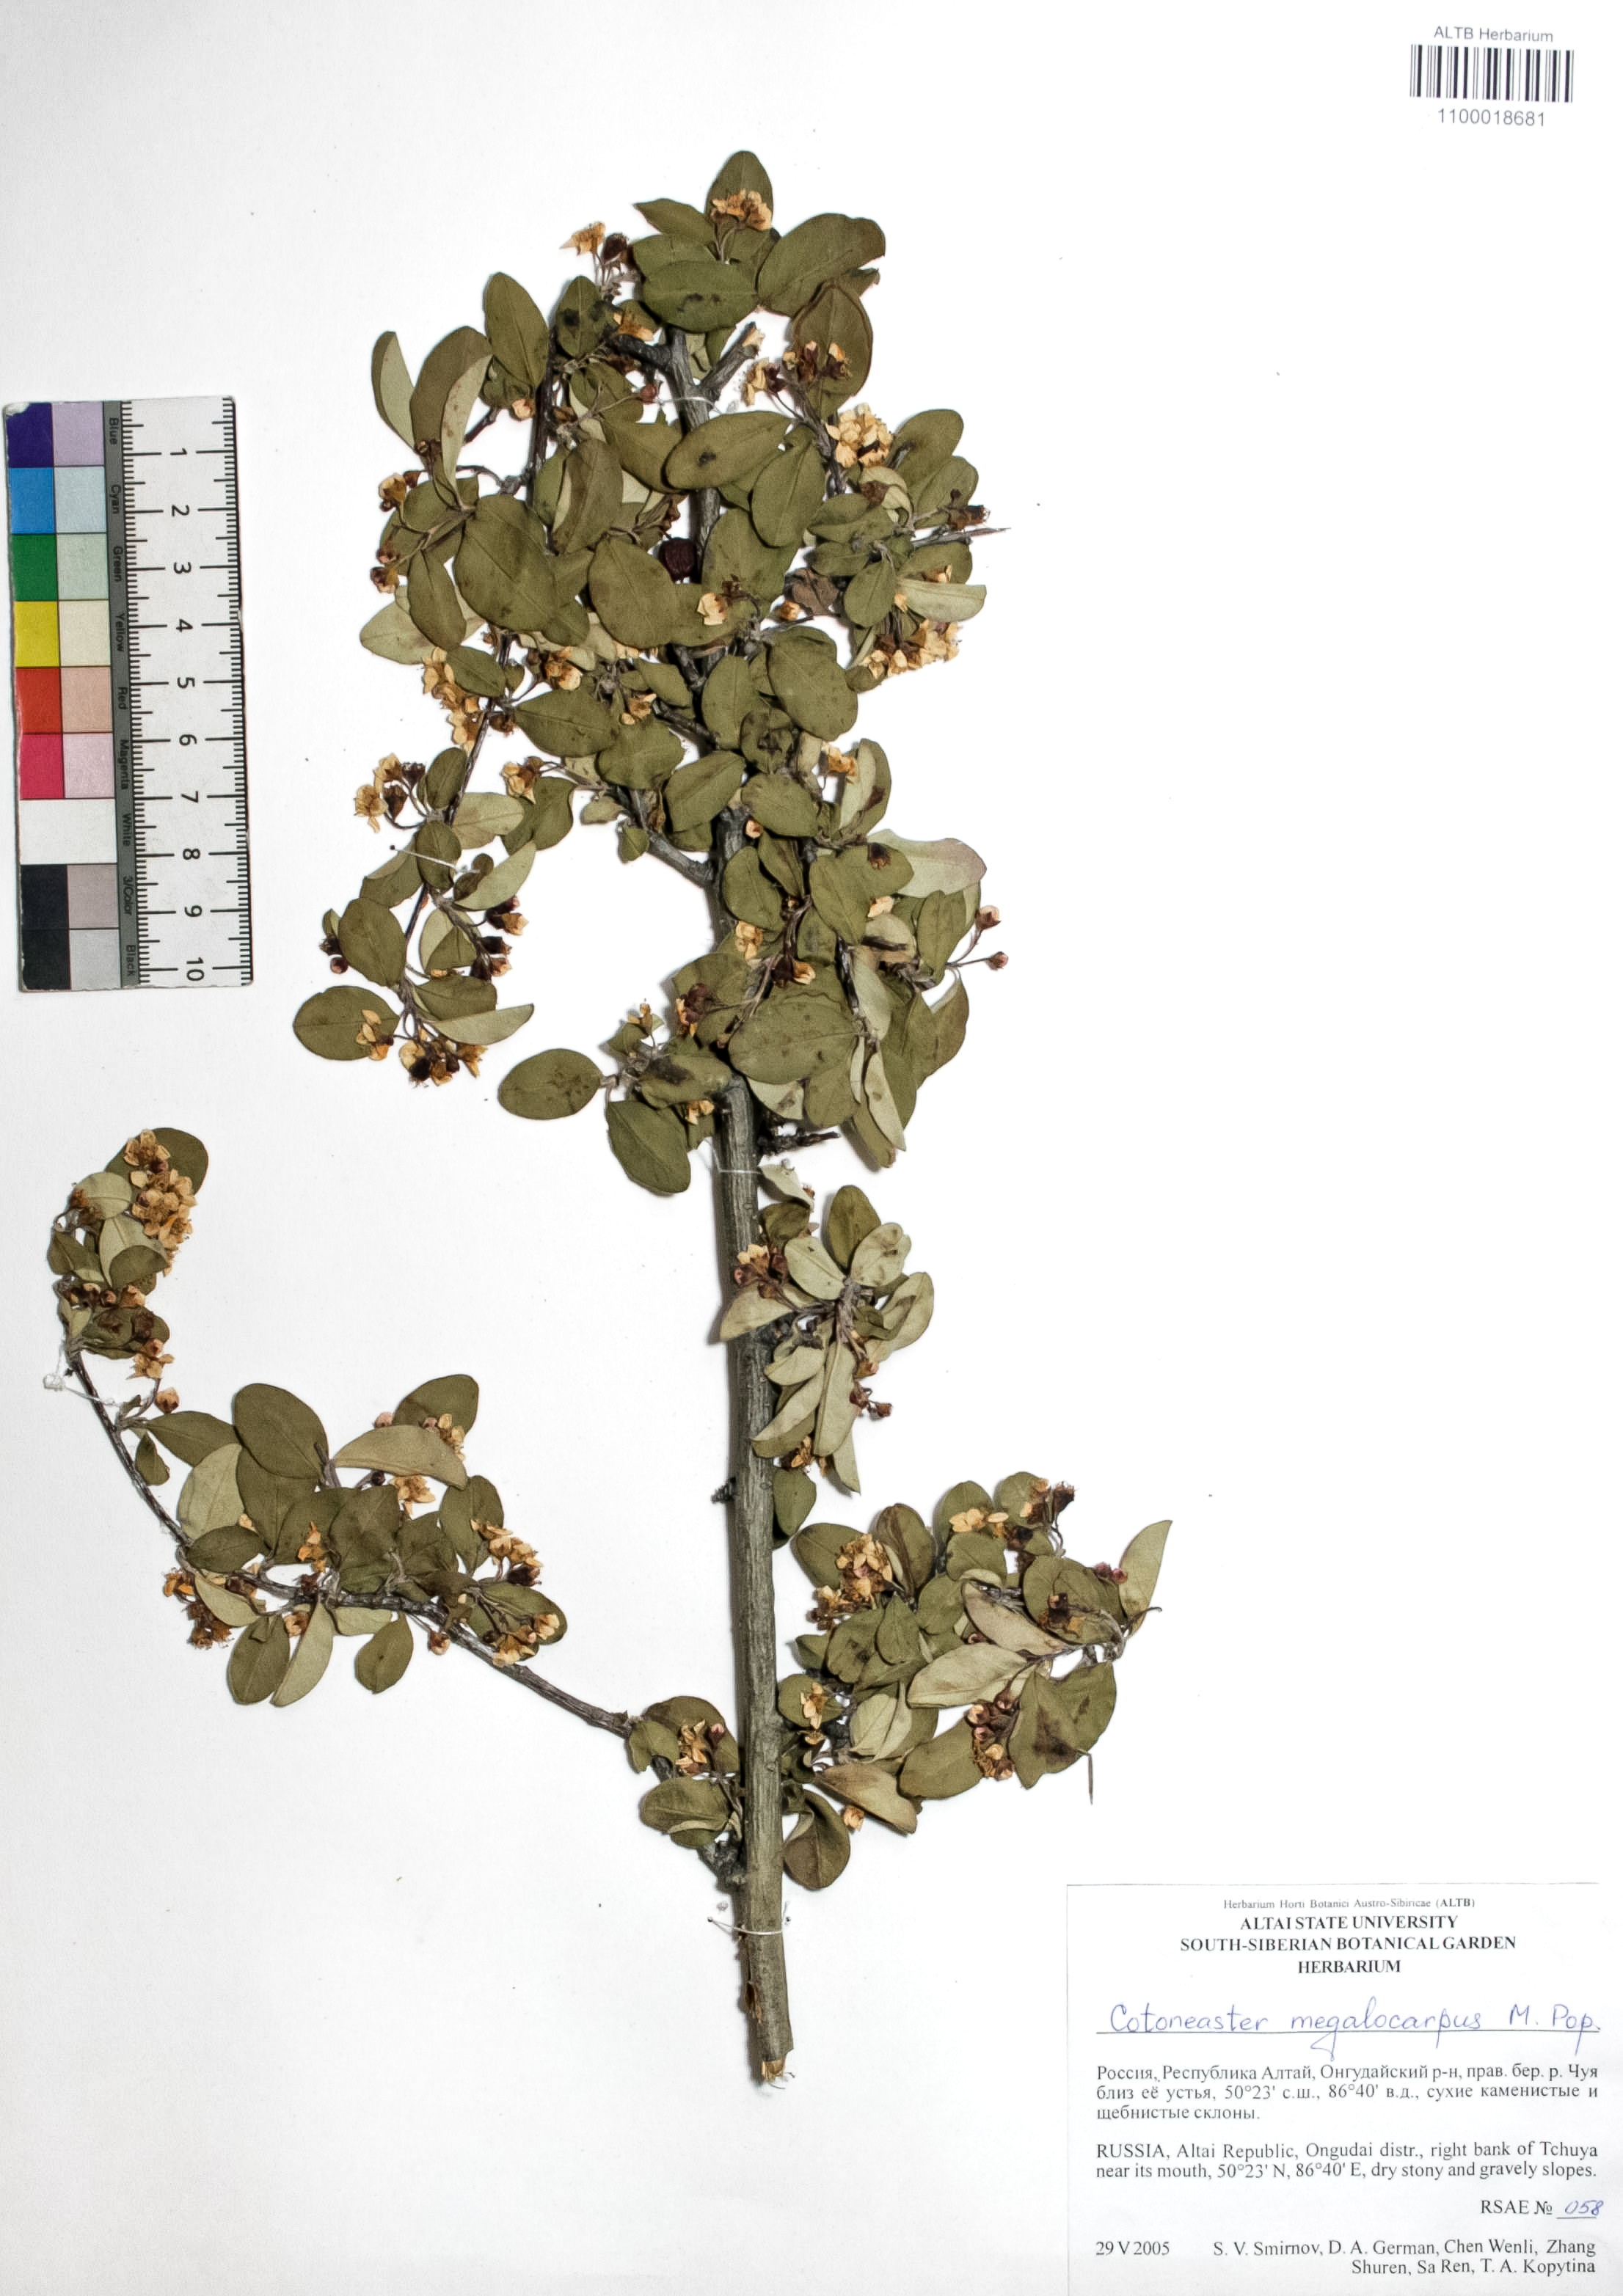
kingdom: Plantae
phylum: Tracheophyta
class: Magnoliopsida
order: Rosales
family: Rosaceae
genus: Cotoneaster
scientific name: Cotoneaster niger
